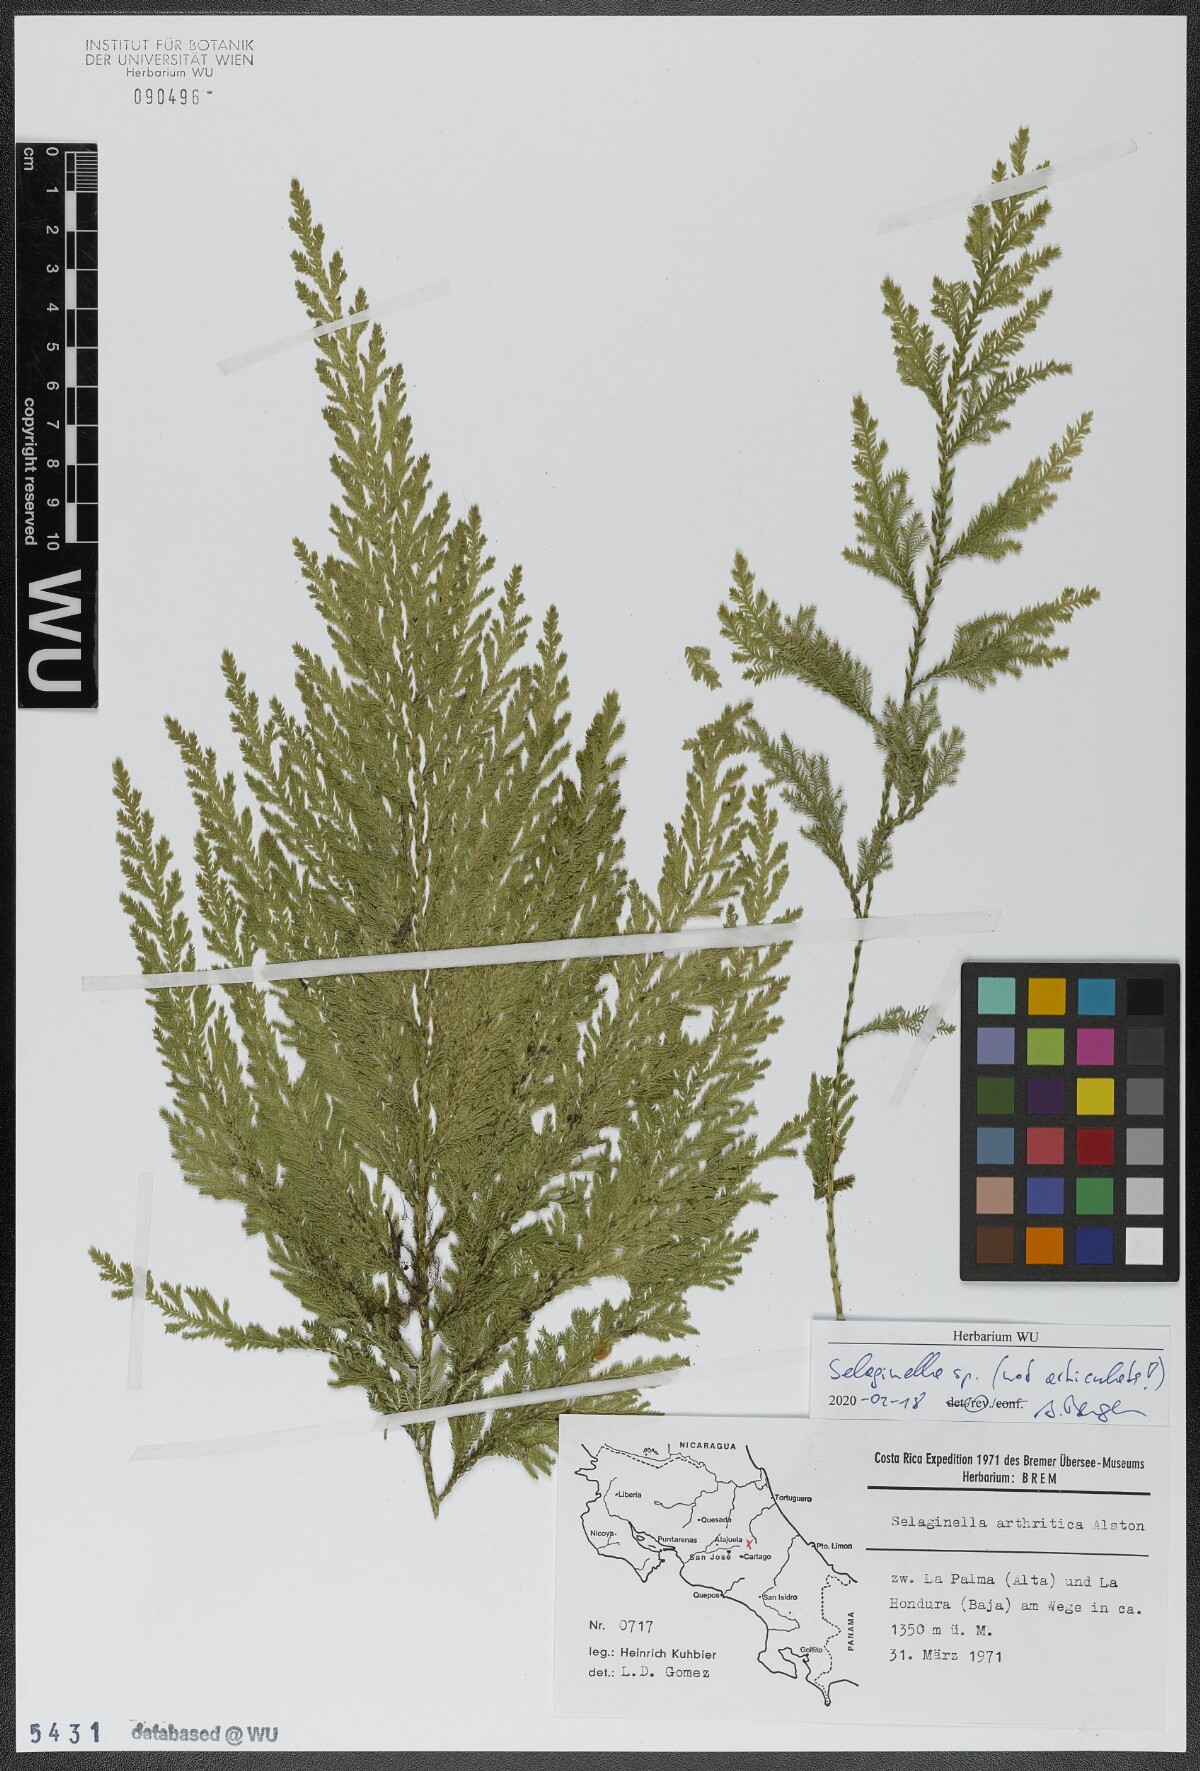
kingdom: Plantae
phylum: Tracheophyta
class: Lycopodiopsida
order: Selaginellales
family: Selaginellaceae
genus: Selaginella
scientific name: Selaginella
